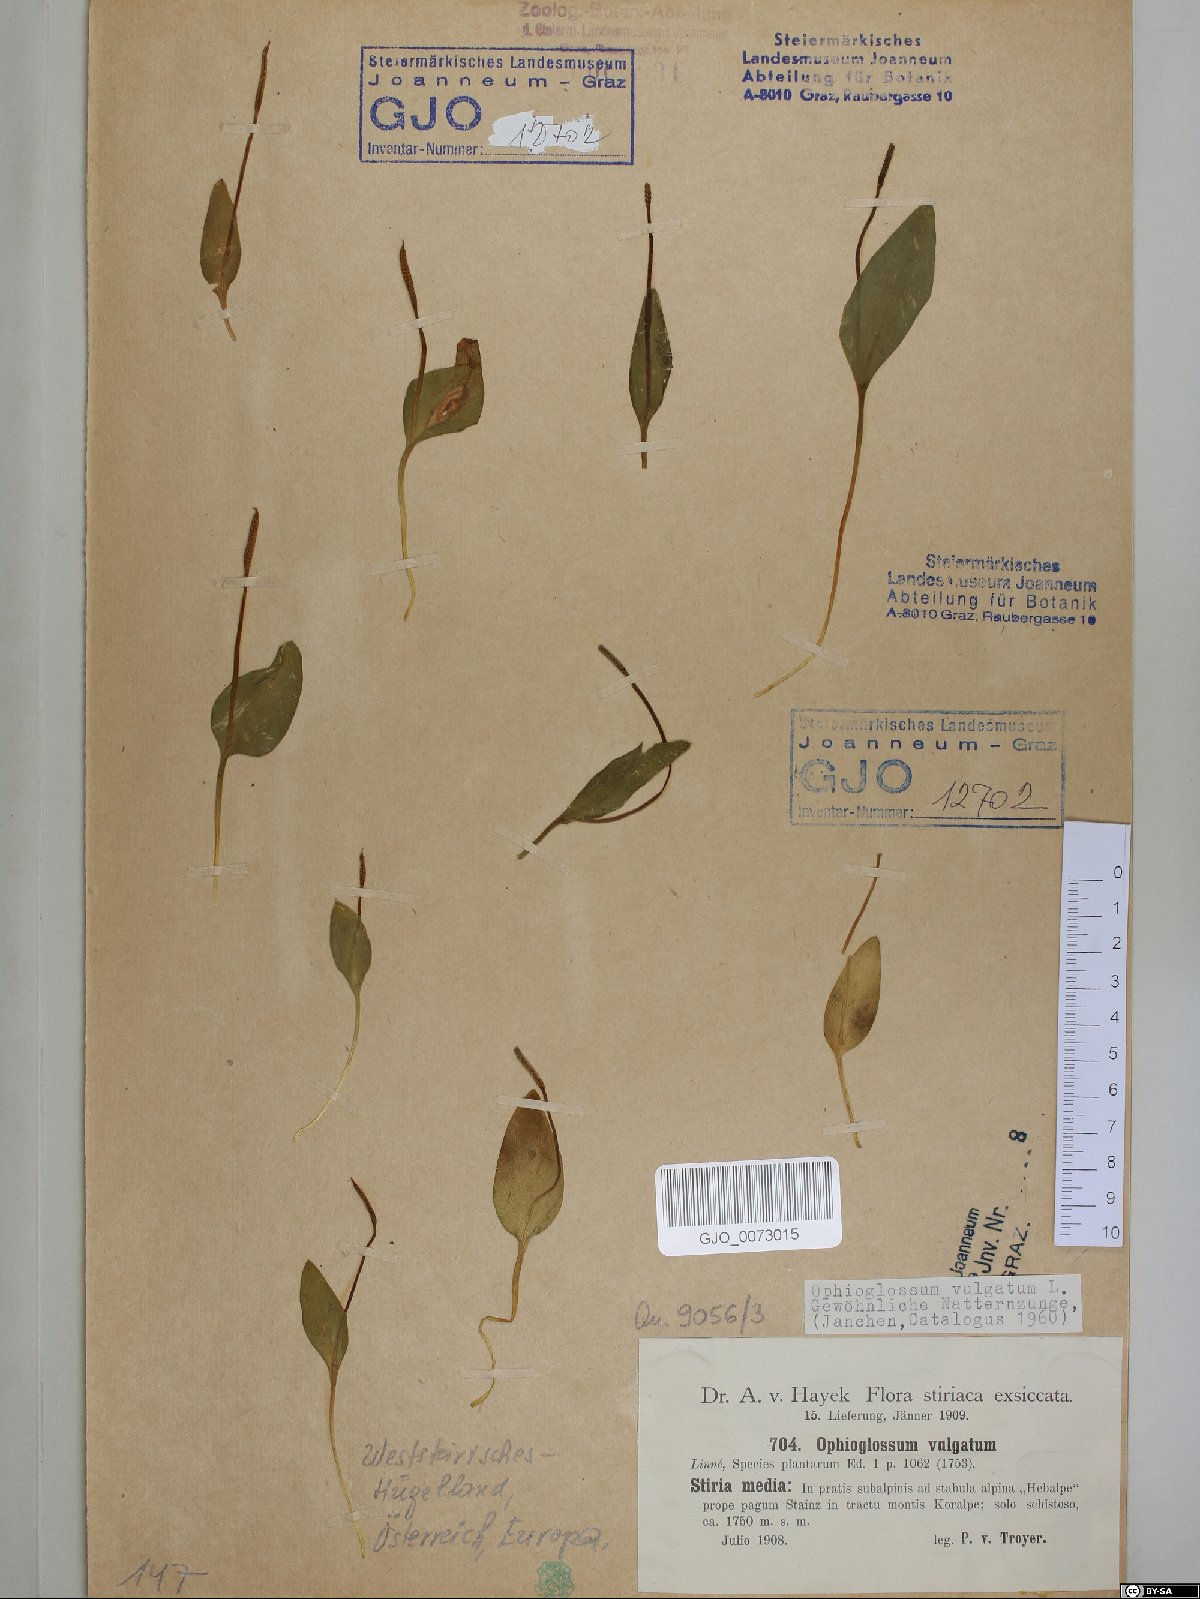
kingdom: Plantae
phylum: Tracheophyta
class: Polypodiopsida
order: Ophioglossales
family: Ophioglossaceae
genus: Ophioglossum
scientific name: Ophioglossum vulgatum
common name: Adder's-tongue
